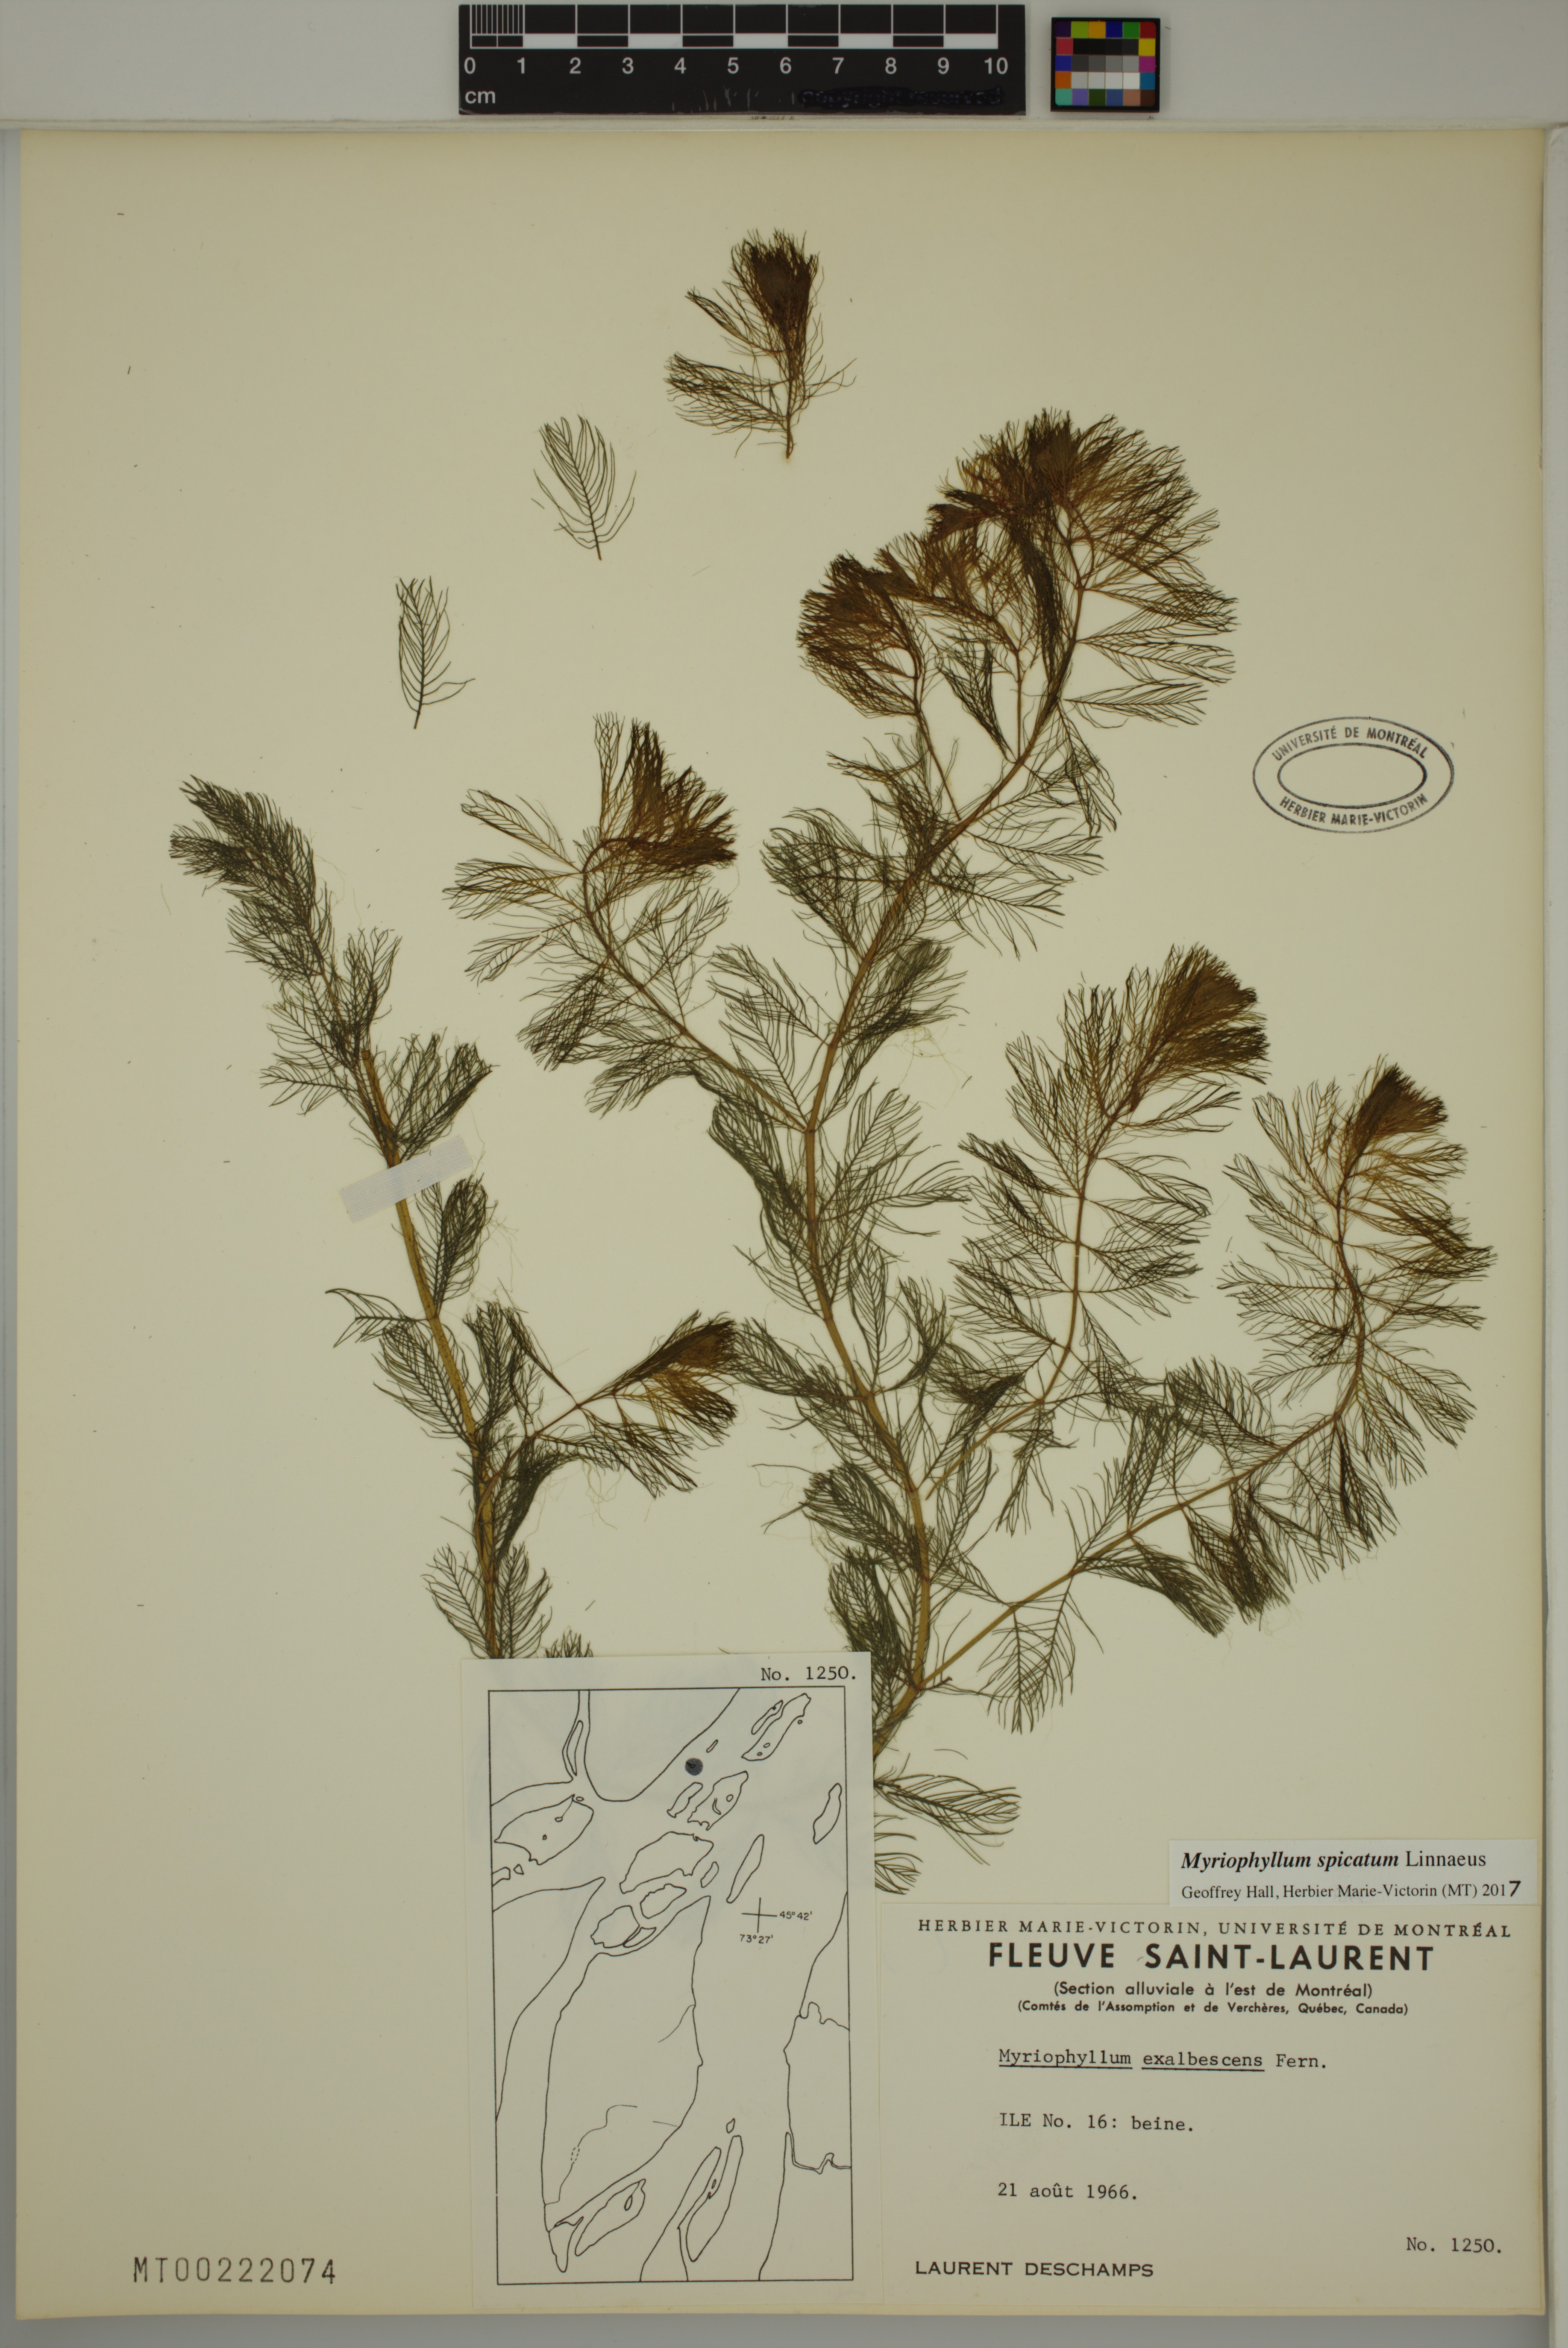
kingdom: Plantae
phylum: Tracheophyta
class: Magnoliopsida
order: Saxifragales
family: Haloragaceae
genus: Myriophyllum
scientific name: Myriophyllum spicatum
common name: Spiked water-milfoil
